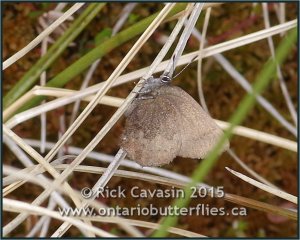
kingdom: Animalia
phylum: Arthropoda
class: Insecta
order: Lepidoptera
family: Lycaenidae
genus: Incisalia
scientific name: Incisalia irioides
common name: Brown Elfin
